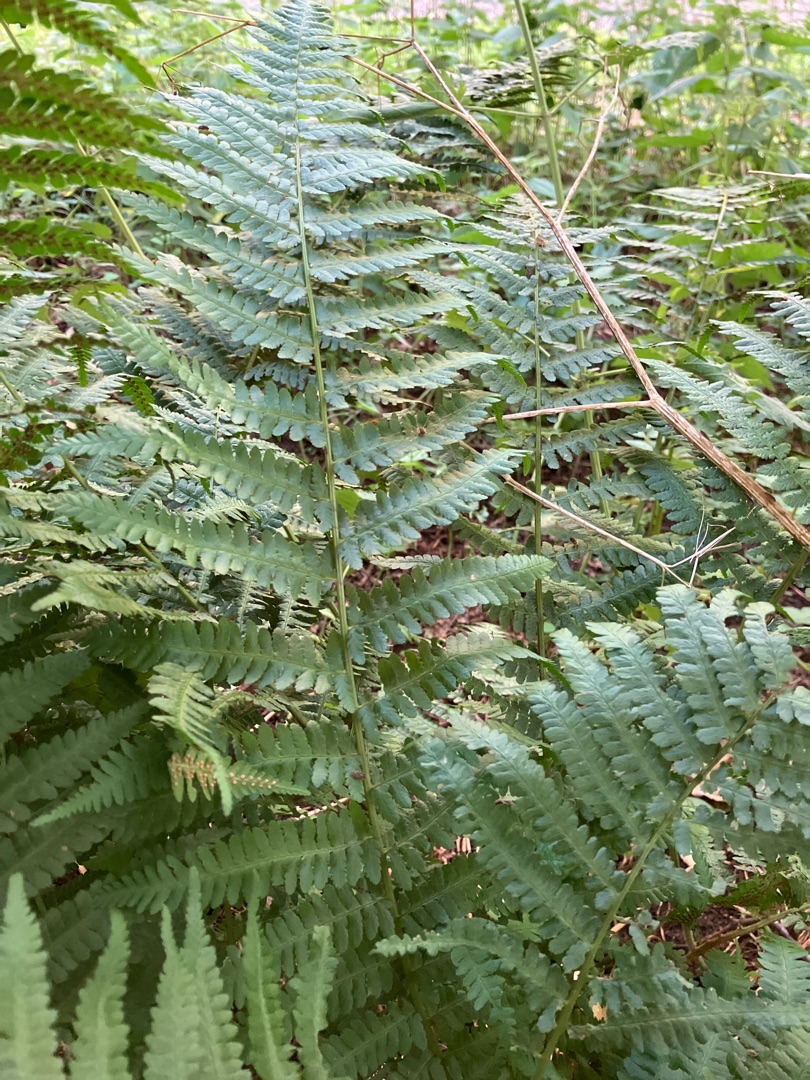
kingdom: Plantae
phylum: Tracheophyta
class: Polypodiopsida
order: Polypodiales
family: Dryopteridaceae
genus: Dryopteris
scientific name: Dryopteris filix-mas
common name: Almindelig mangeløv
